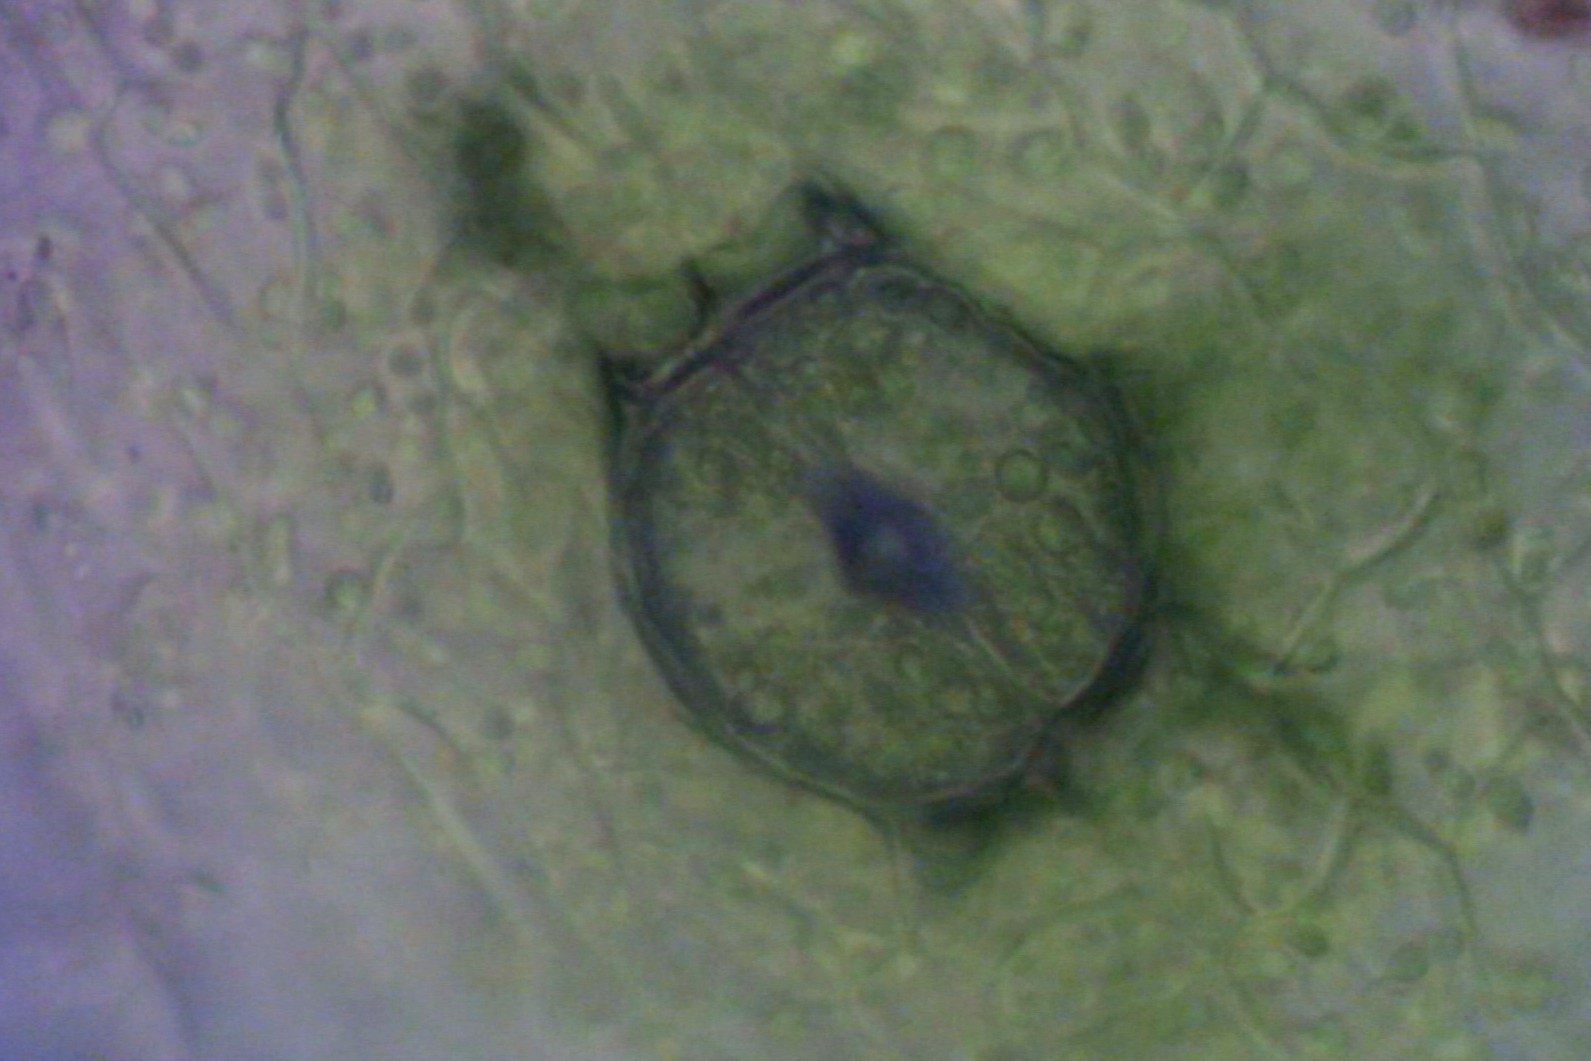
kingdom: Plantae
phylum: Bryophyta
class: Bryopsida
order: Orthotrichales
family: Orthotrichaceae
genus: Lewinskya
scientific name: Lewinskya rupestris
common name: Sten-furehætte
